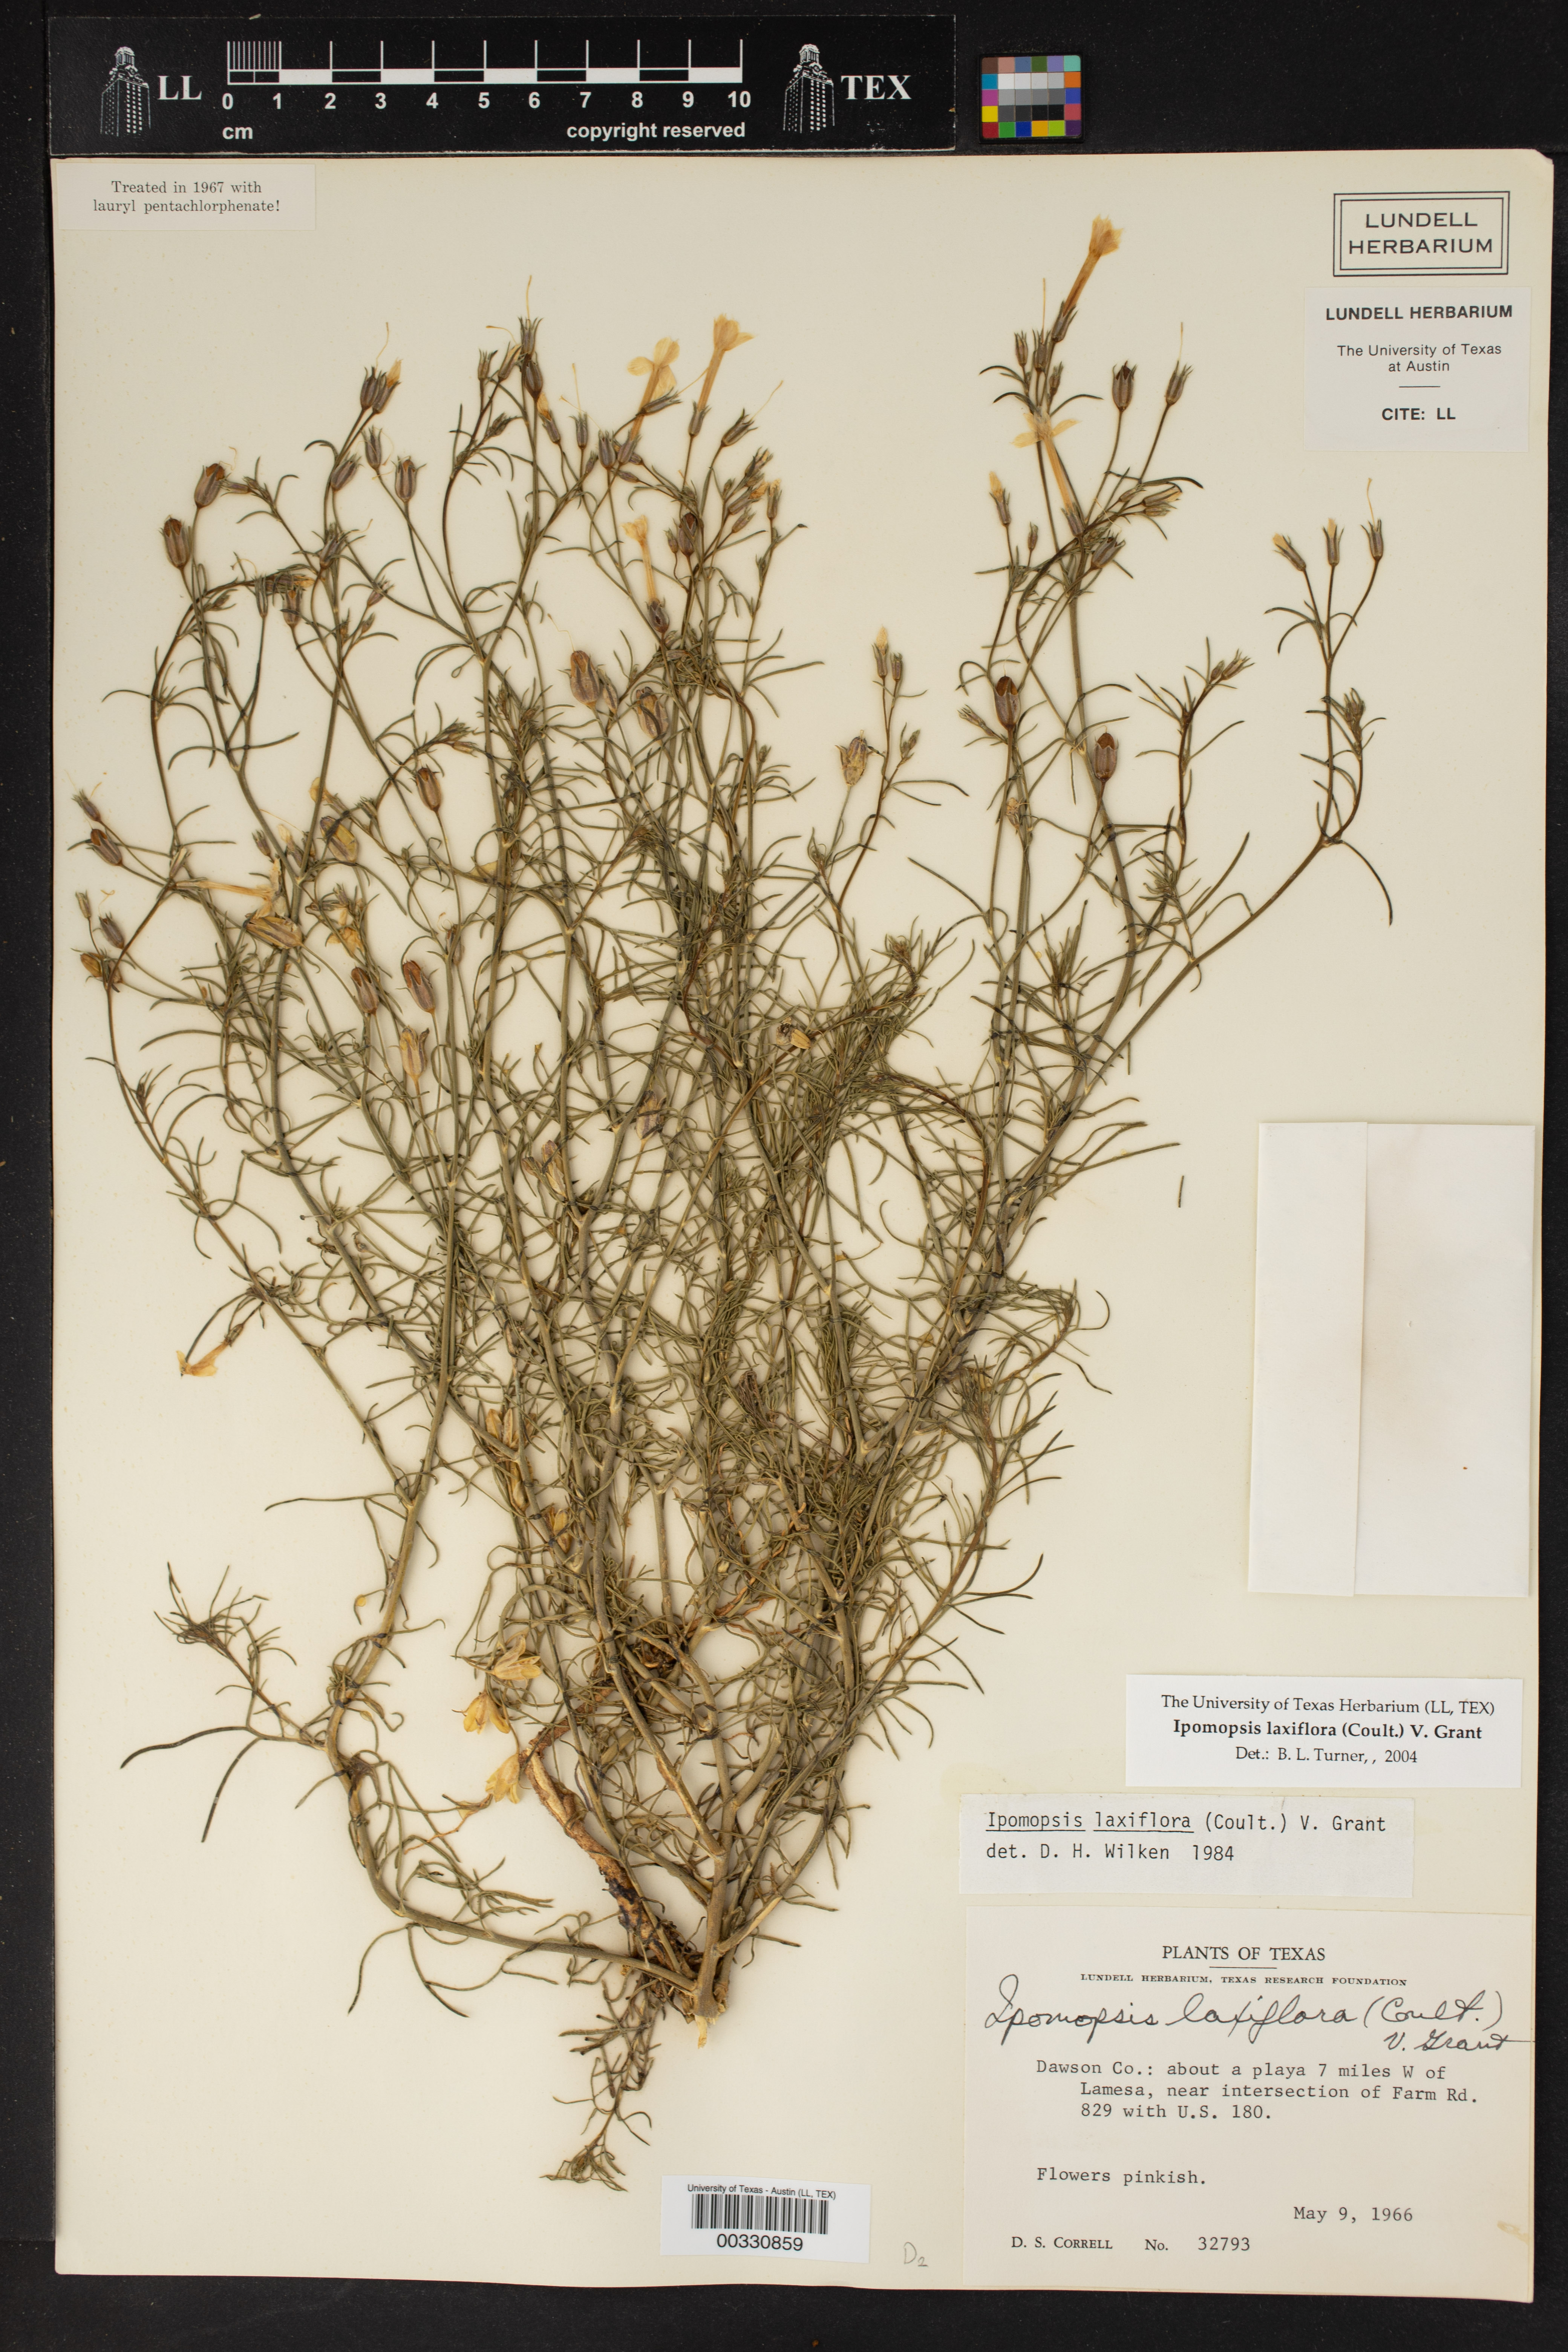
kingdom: Plantae
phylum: Tracheophyta
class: Magnoliopsida
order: Ericales
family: Polemoniaceae
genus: Ipomopsis
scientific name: Ipomopsis laxiflora
